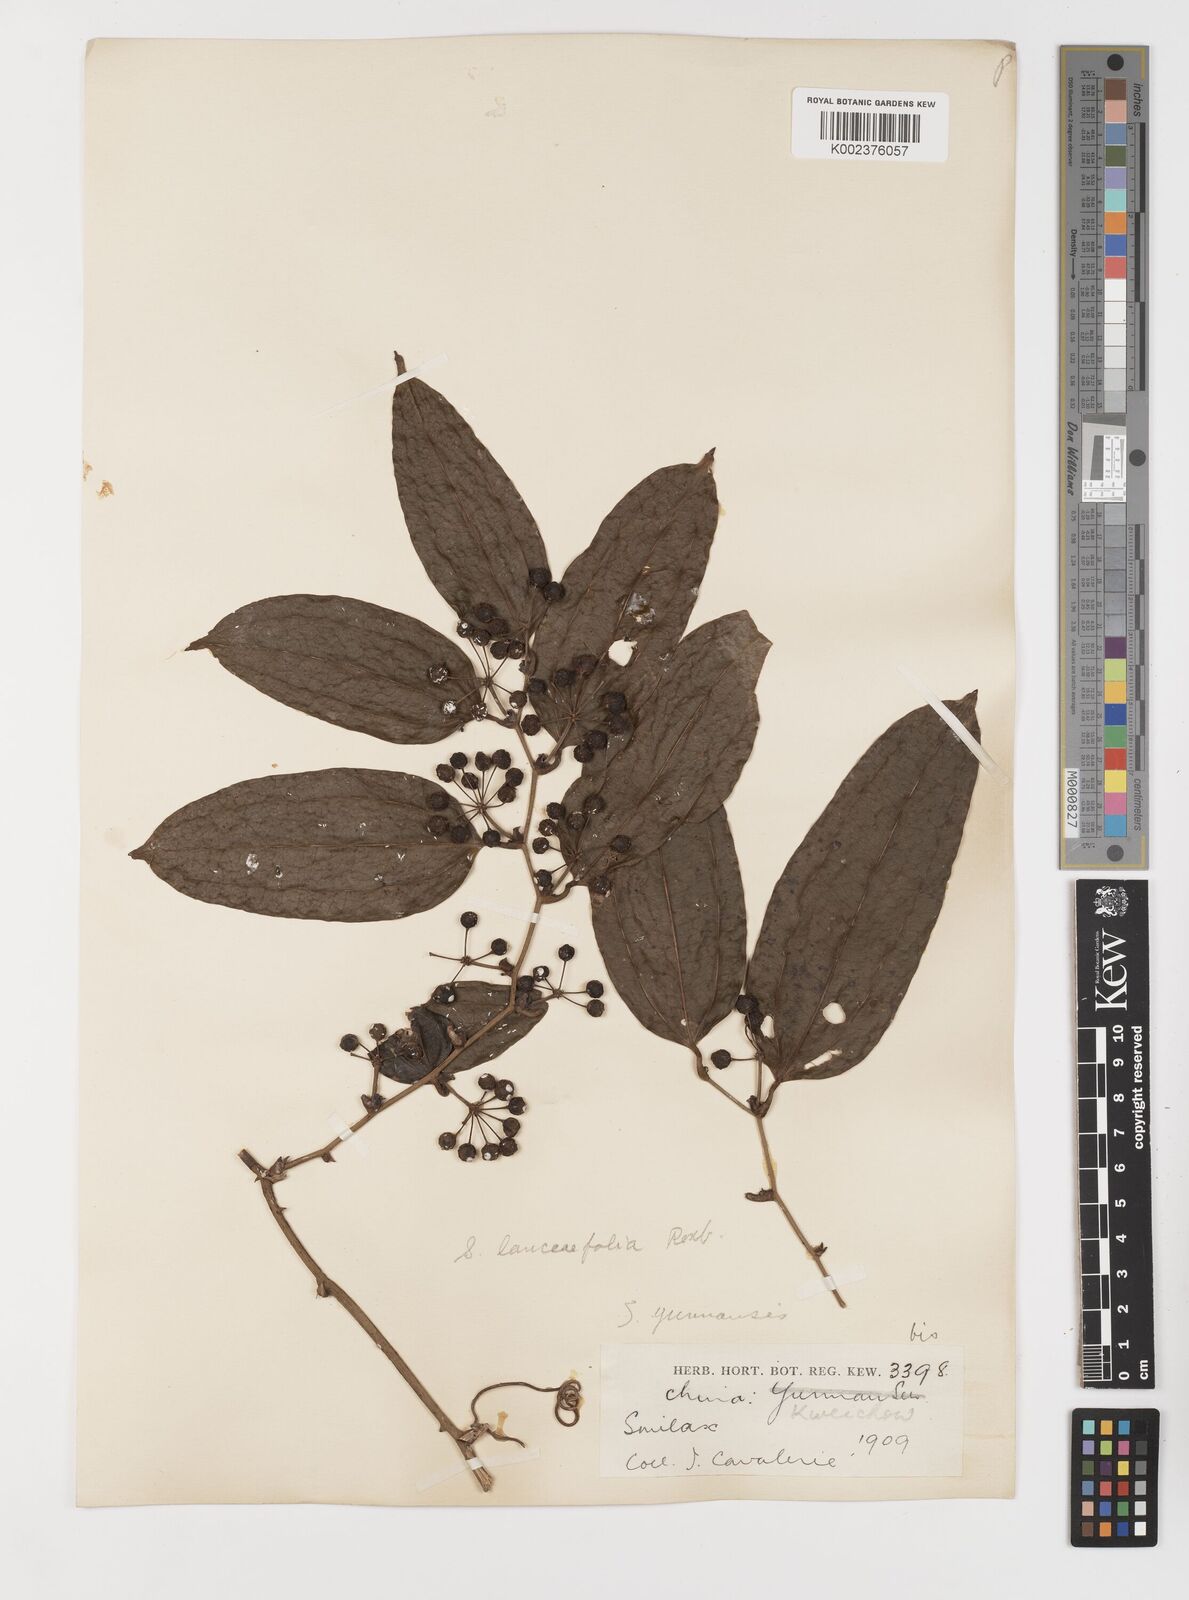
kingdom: Plantae
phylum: Tracheophyta
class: Liliopsida
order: Liliales
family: Smilacaceae
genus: Smilax
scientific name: Smilax lanceifolia
